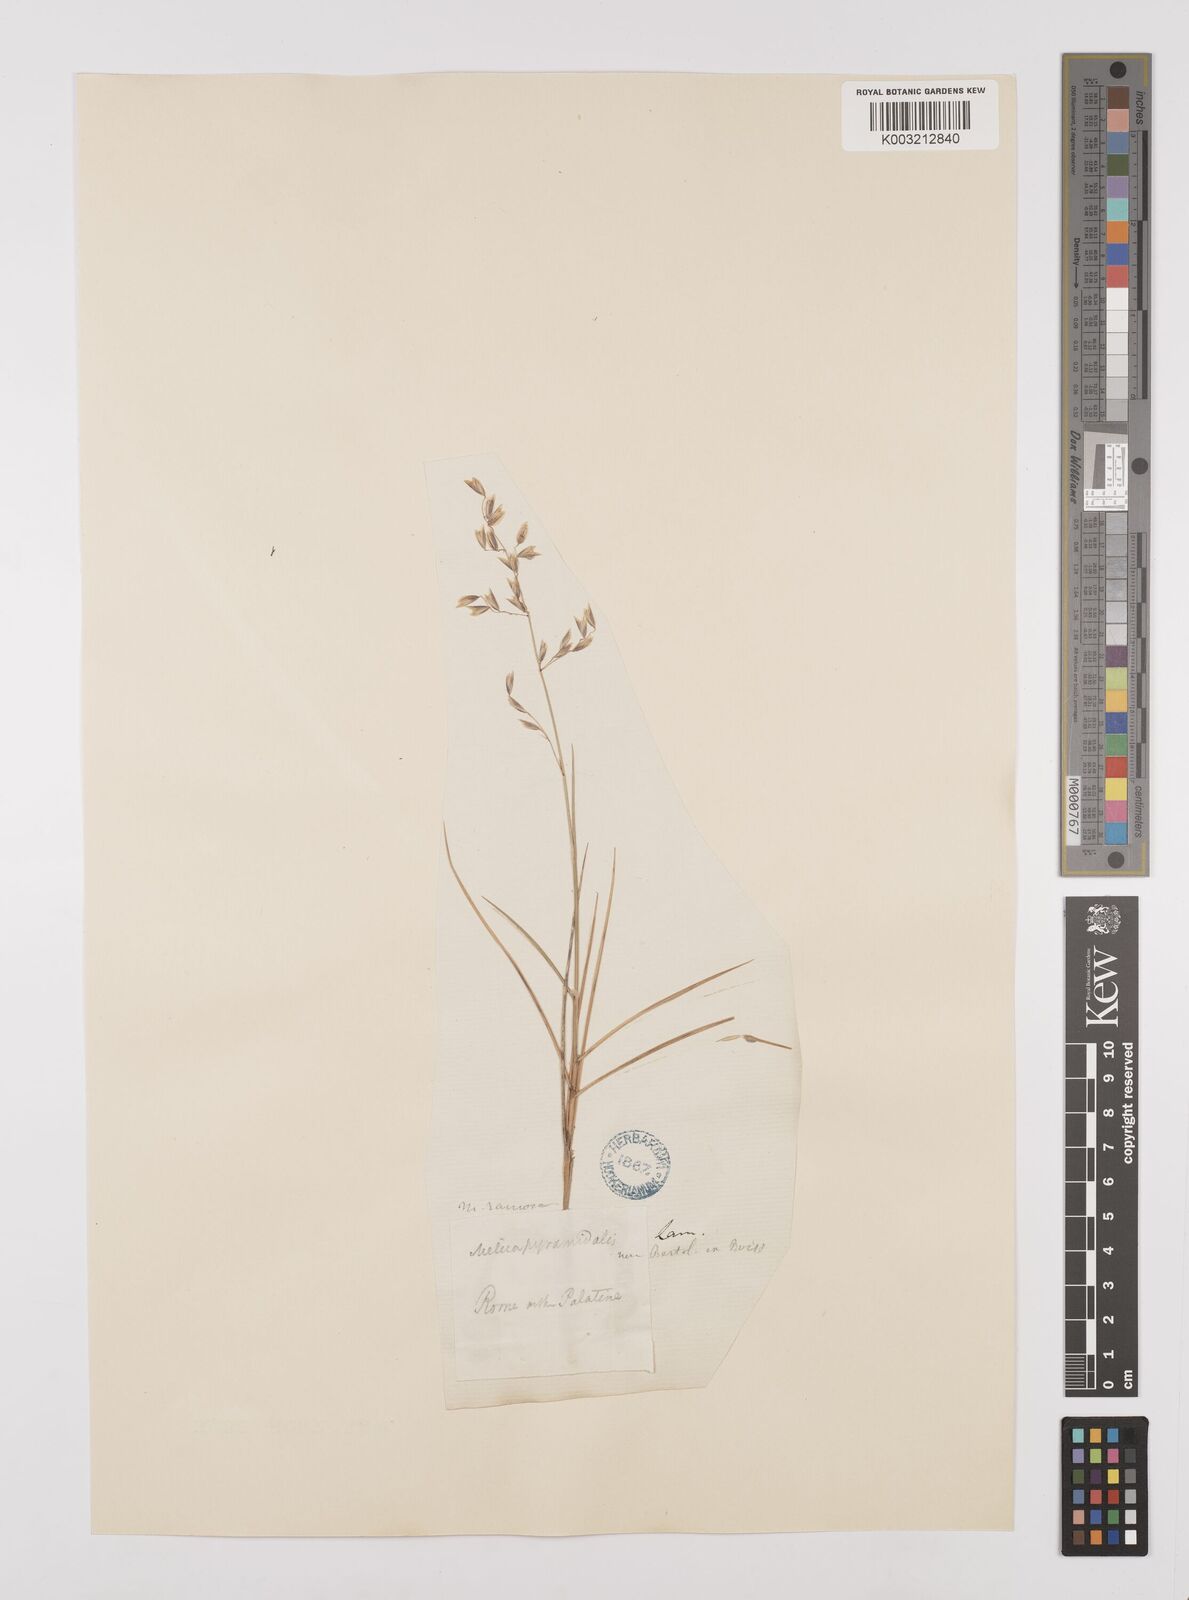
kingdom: Plantae
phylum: Tracheophyta
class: Liliopsida
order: Poales
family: Poaceae
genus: Melica
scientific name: Melica minuta
